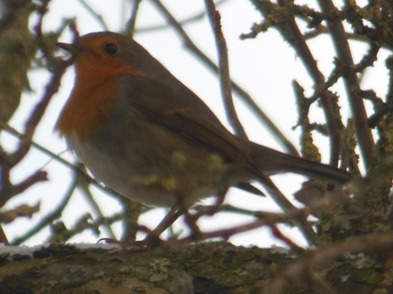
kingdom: Animalia
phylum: Chordata
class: Aves
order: Passeriformes
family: Muscicapidae
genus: Erithacus
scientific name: Erithacus rubecula
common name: Rødhals/rødkælk
